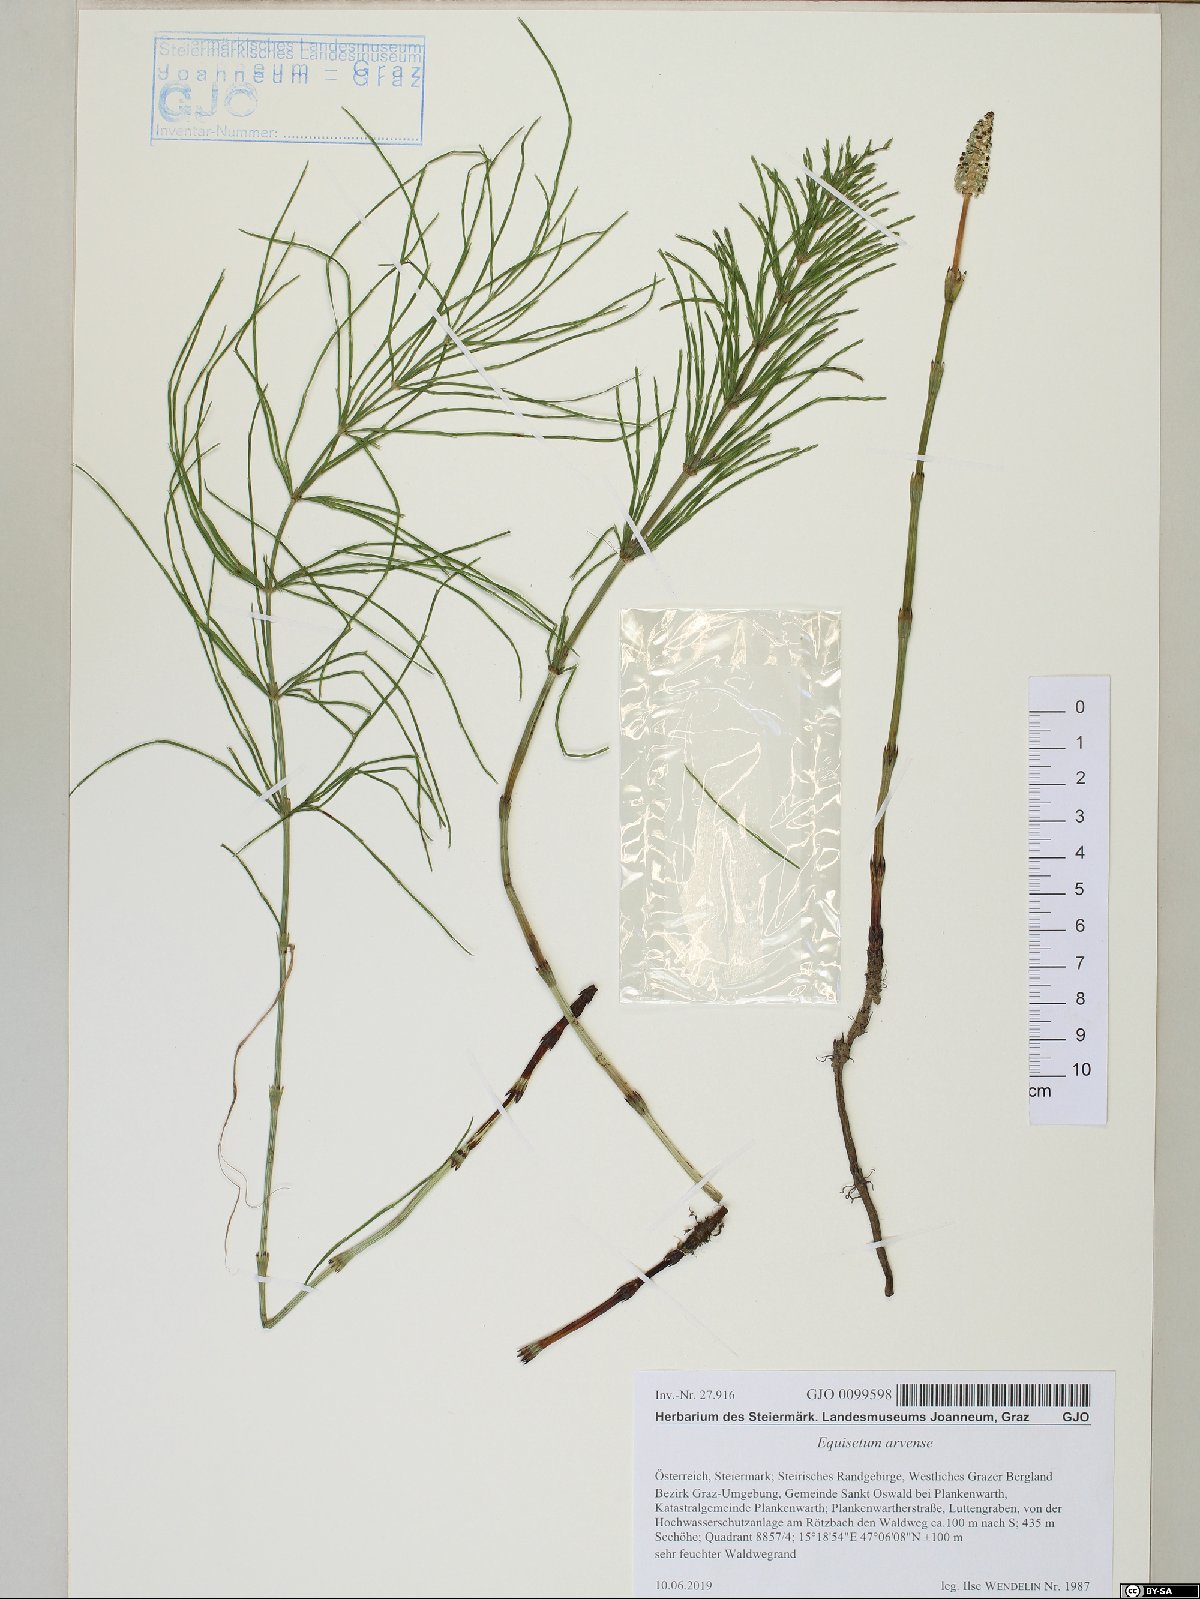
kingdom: Plantae
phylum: Tracheophyta
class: Polypodiopsida
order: Equisetales
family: Equisetaceae
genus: Equisetum
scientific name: Equisetum arvense
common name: Field horsetail
